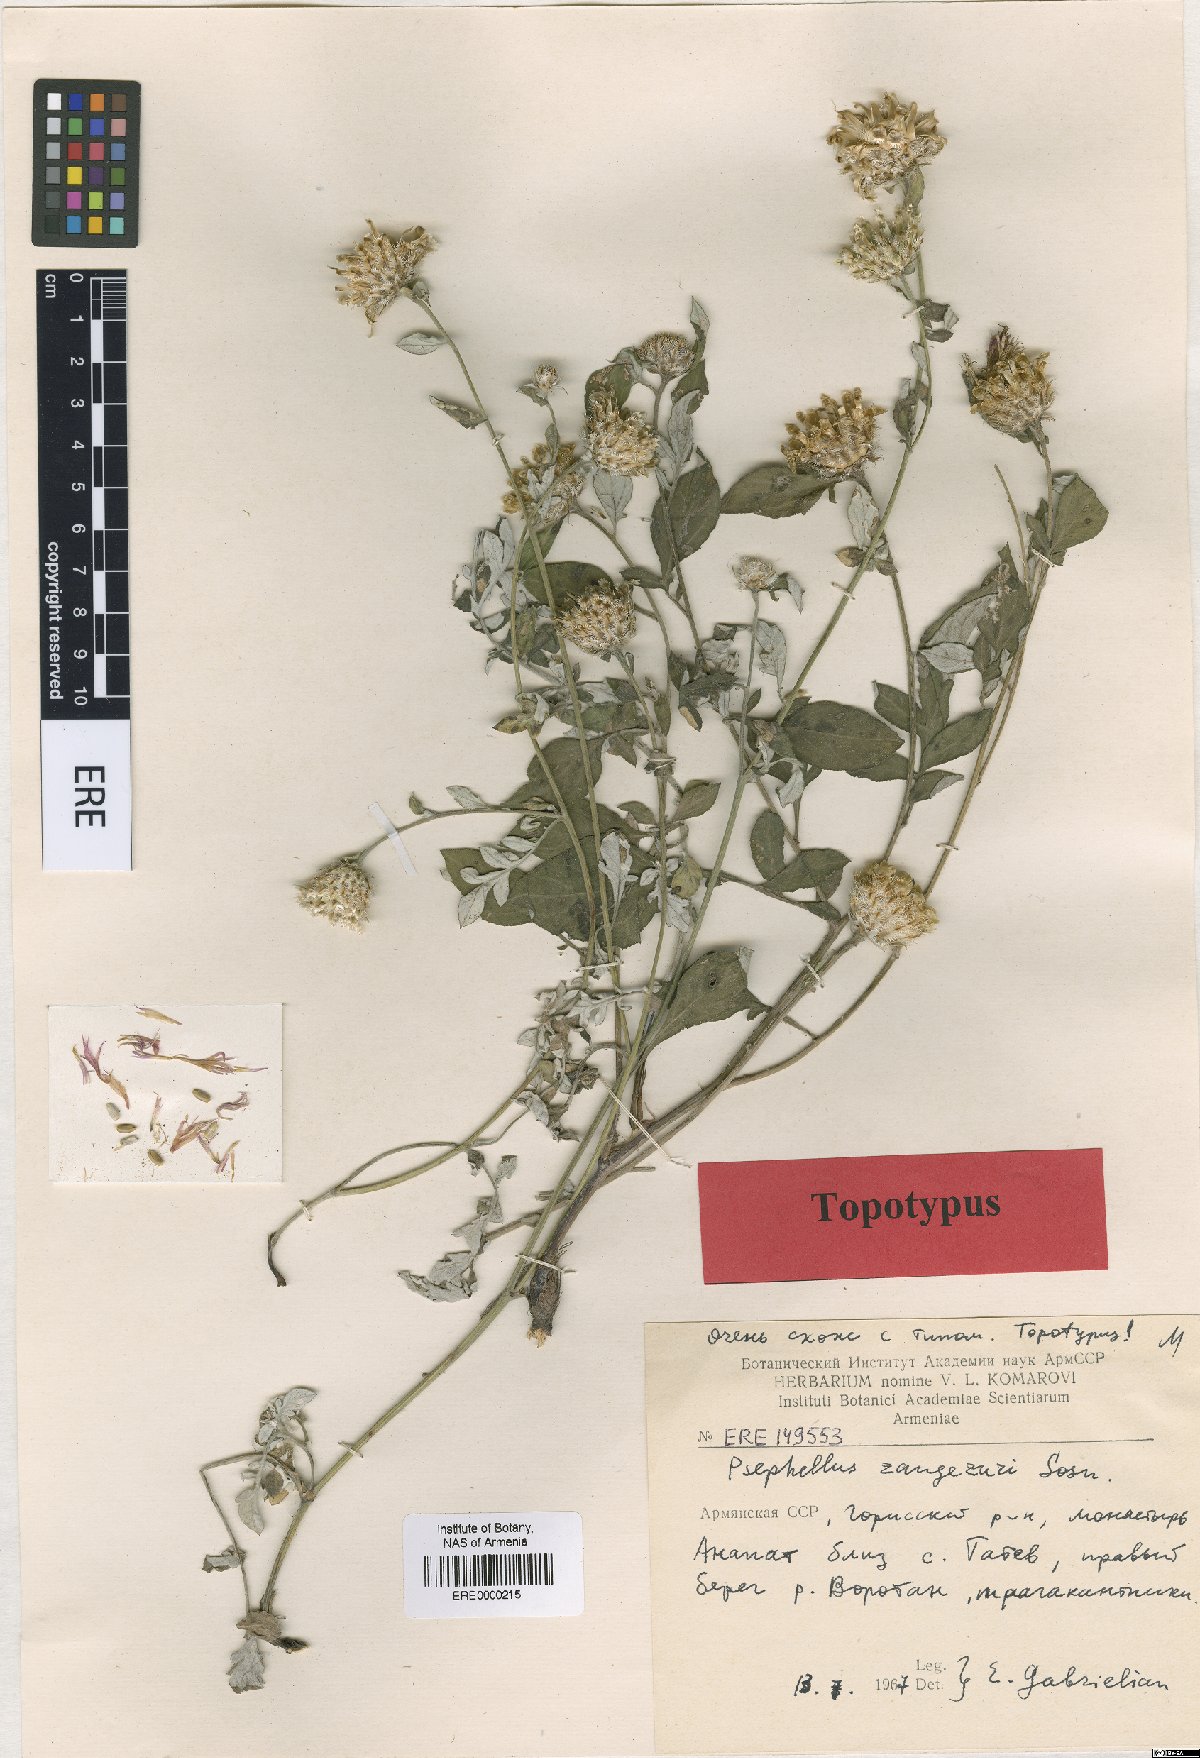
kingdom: Plantae
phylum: Tracheophyta
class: Magnoliopsida
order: Asterales
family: Asteraceae
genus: Psephellus
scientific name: Psephellus zangezuri
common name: Zangezurian cornflower
